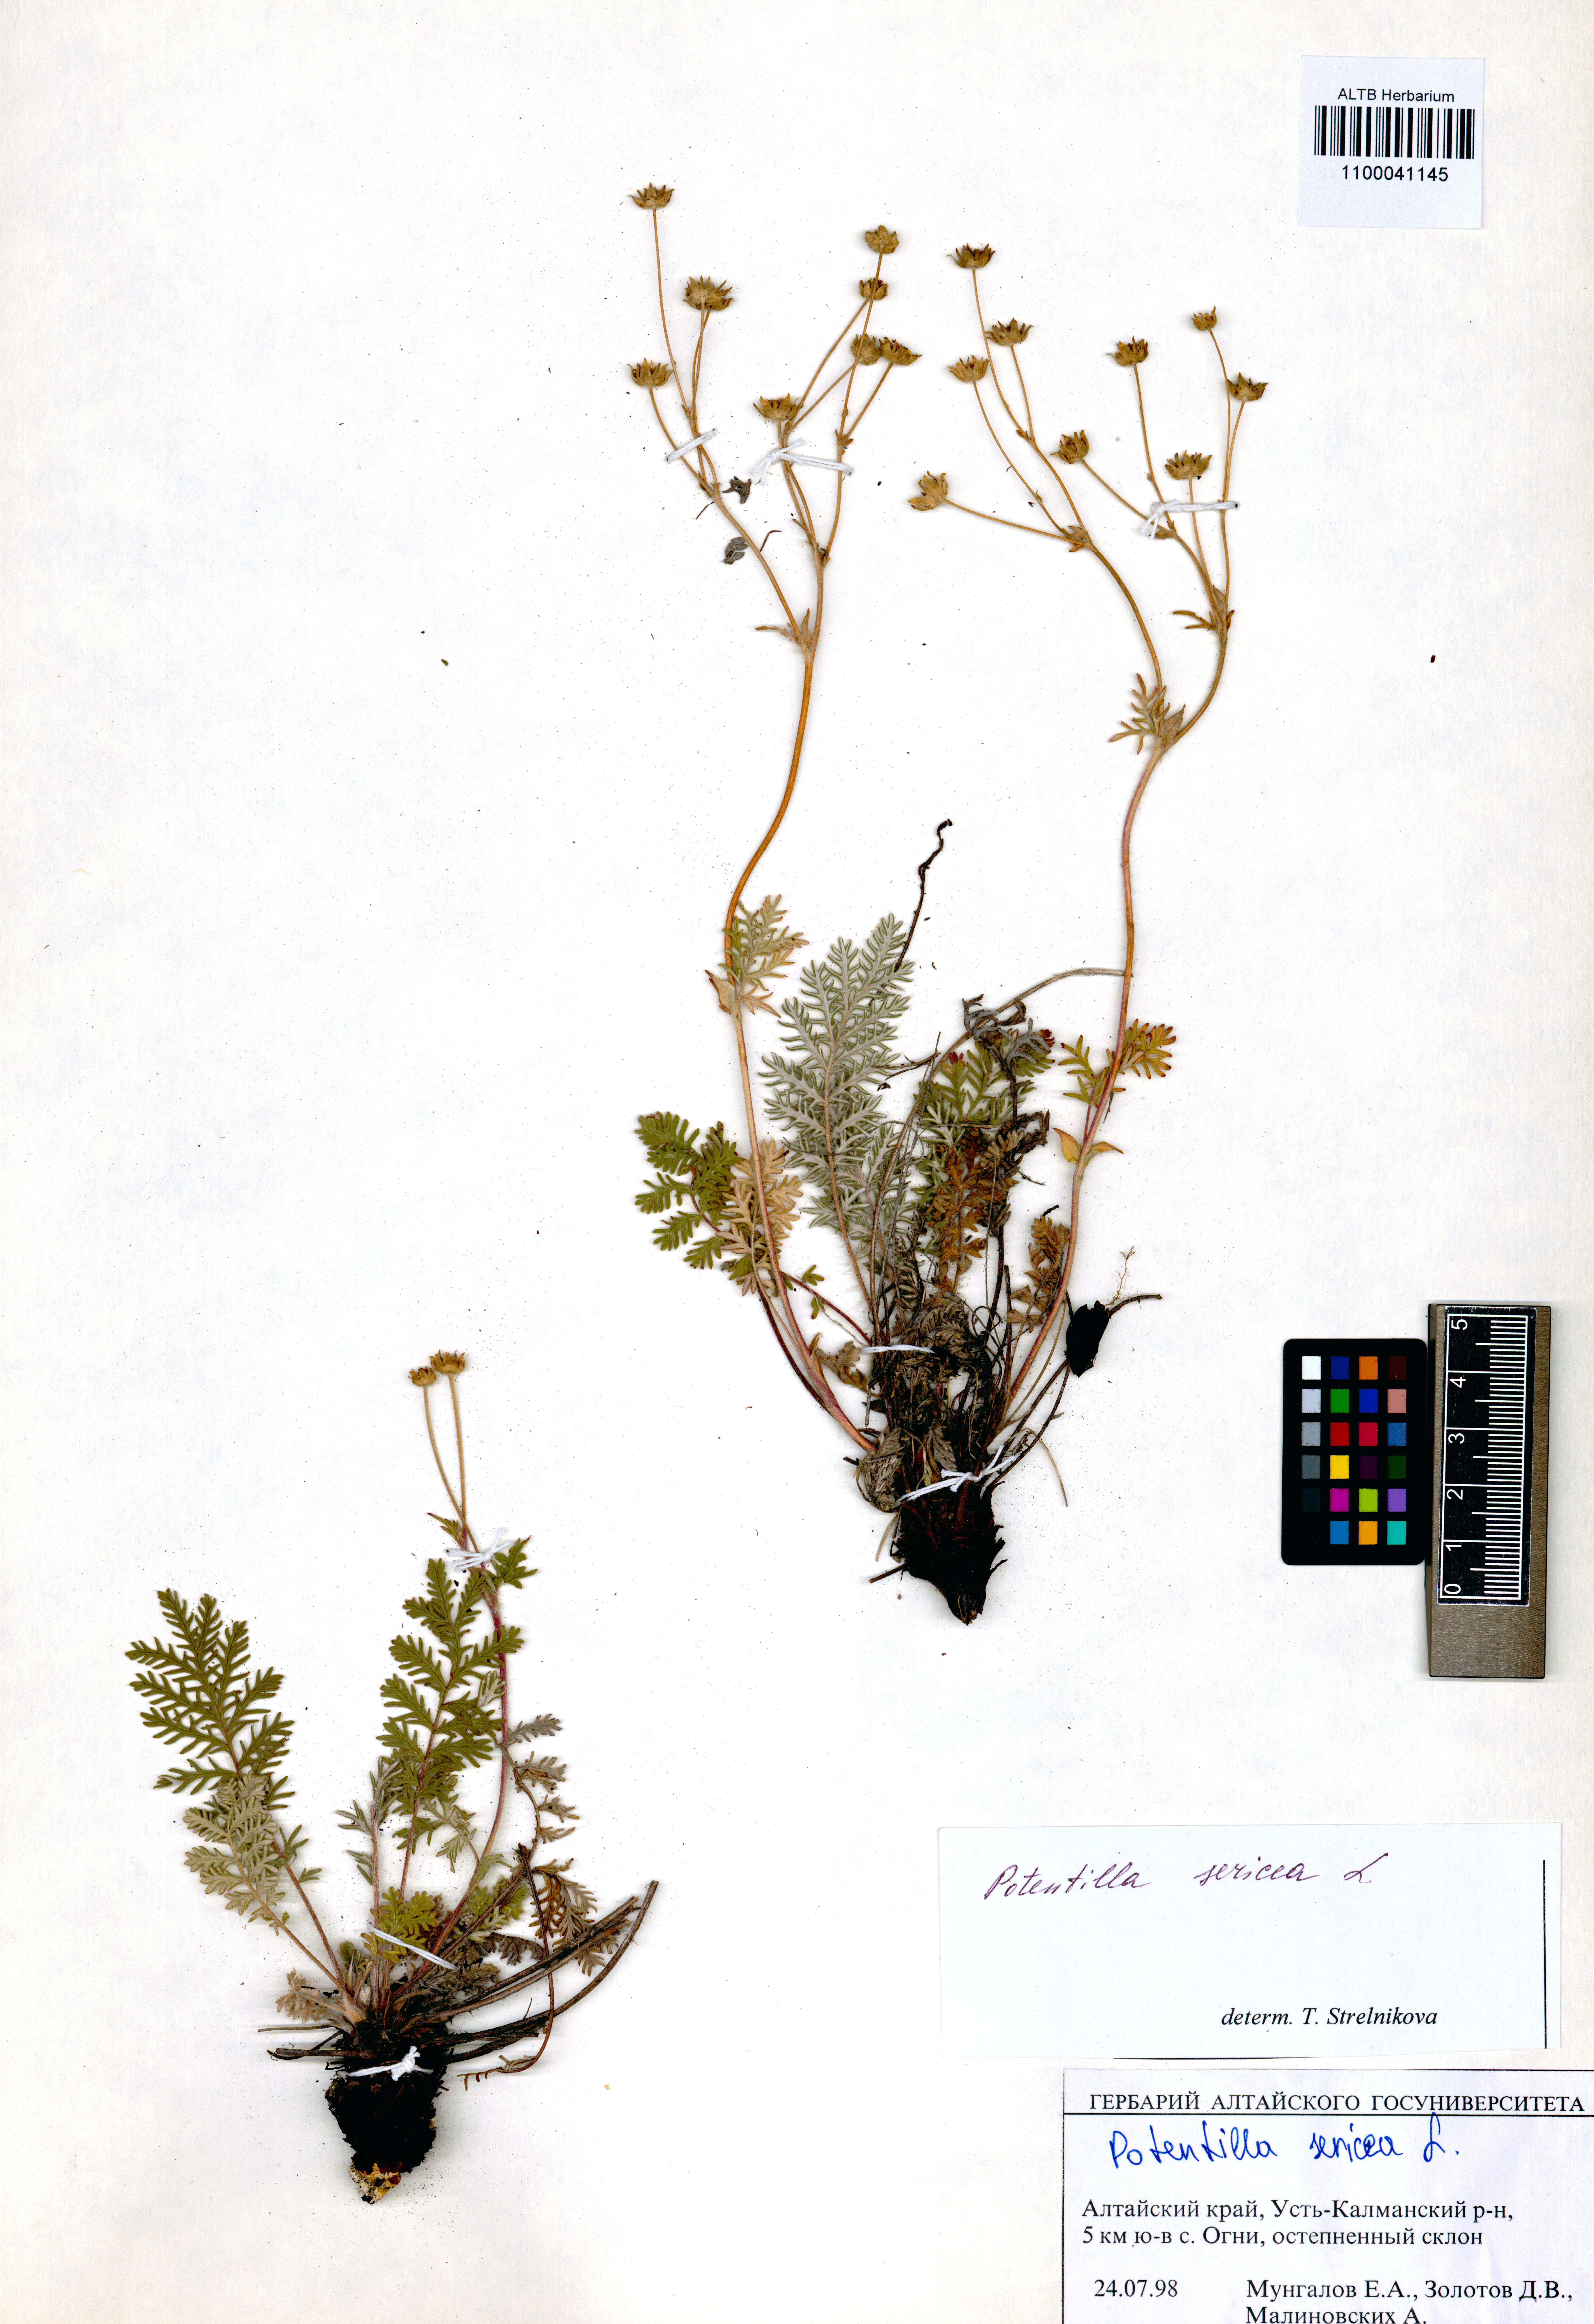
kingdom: Plantae
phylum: Tracheophyta
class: Magnoliopsida
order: Rosales
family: Rosaceae
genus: Potentilla
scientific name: Potentilla sericea
